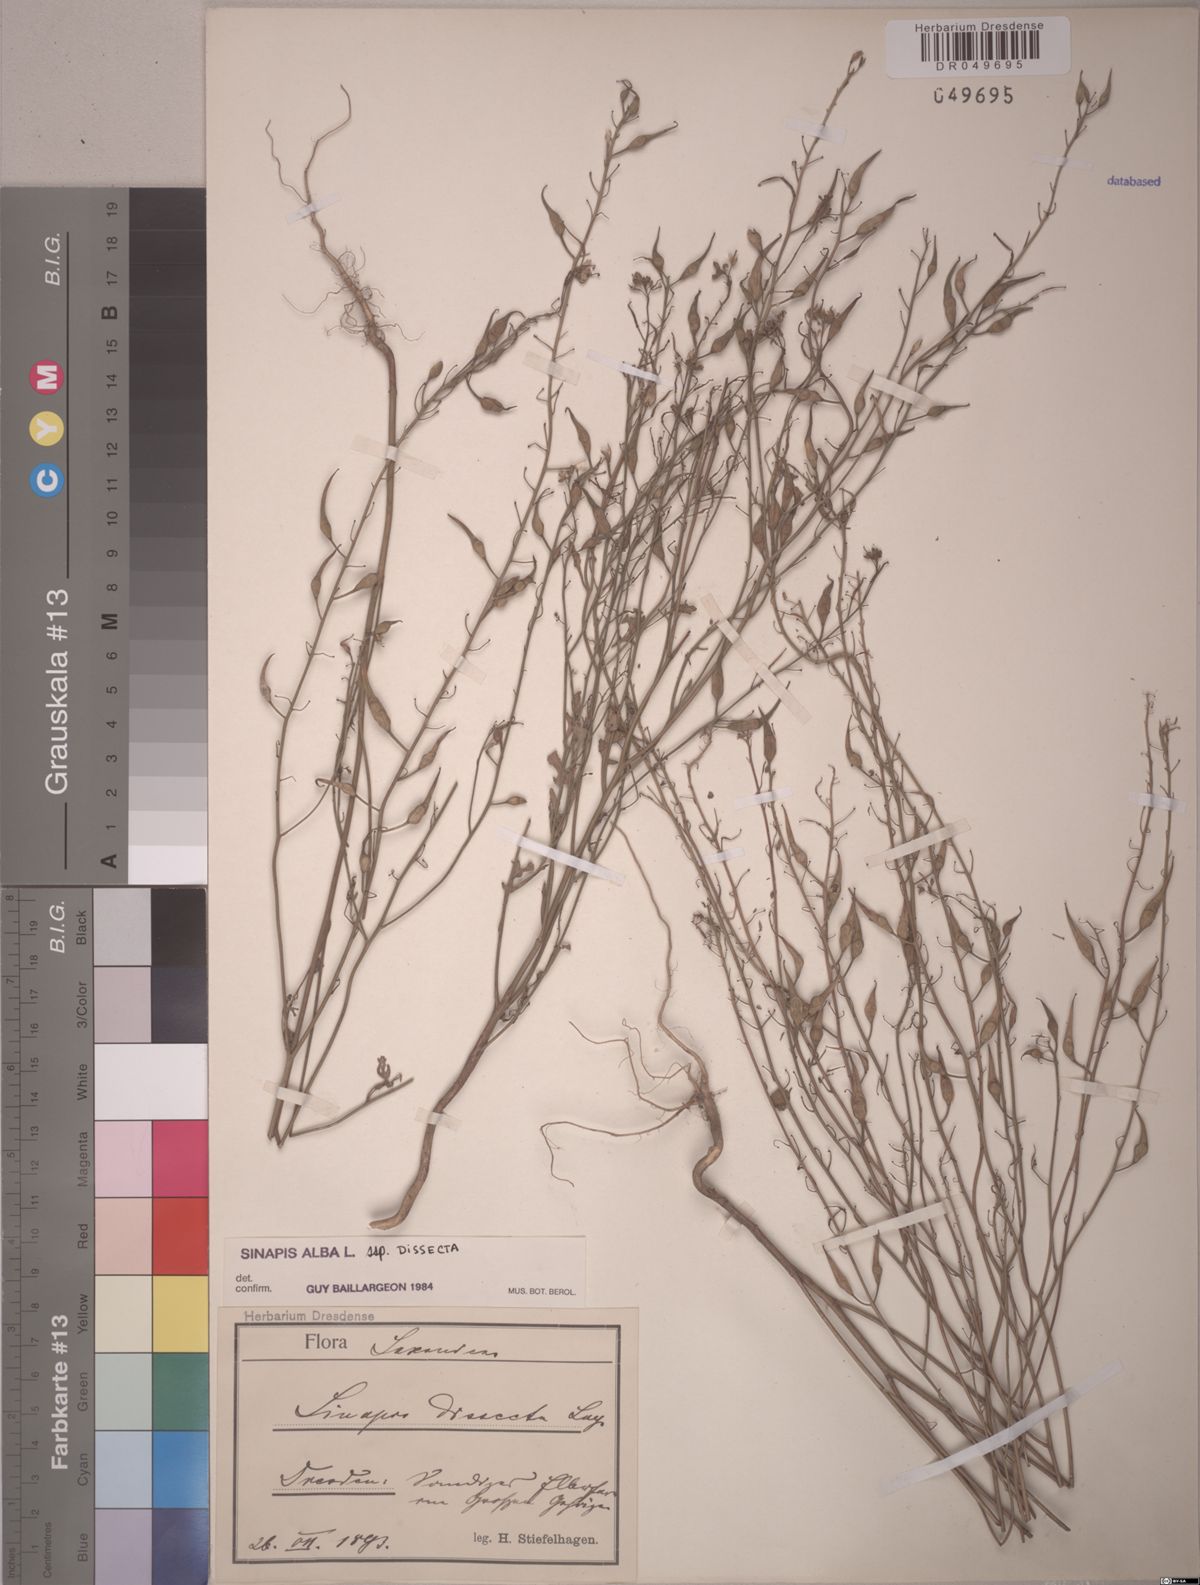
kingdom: Plantae
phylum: Tracheophyta
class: Magnoliopsida
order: Brassicales
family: Brassicaceae
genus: Sinapis
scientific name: Sinapis alba
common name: White mustard
